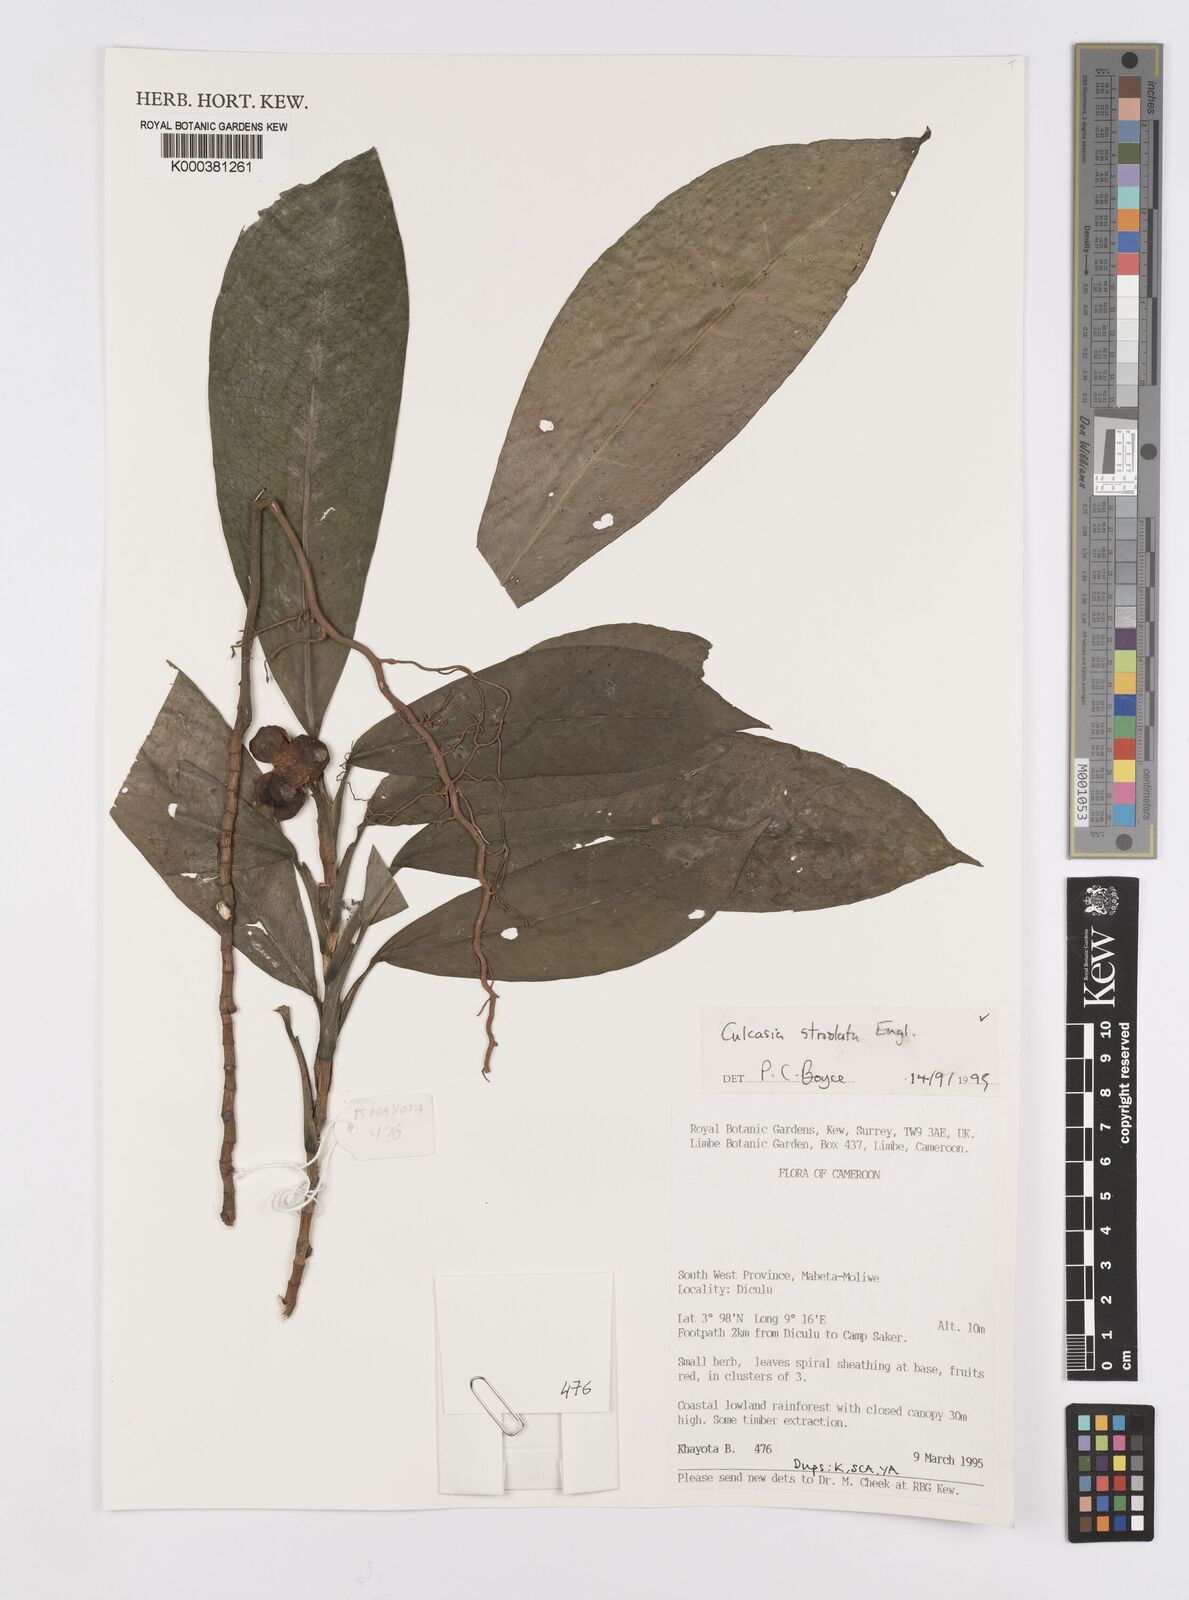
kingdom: Plantae
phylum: Tracheophyta
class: Liliopsida
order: Alismatales
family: Araceae
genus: Culcasia
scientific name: Culcasia striolata
